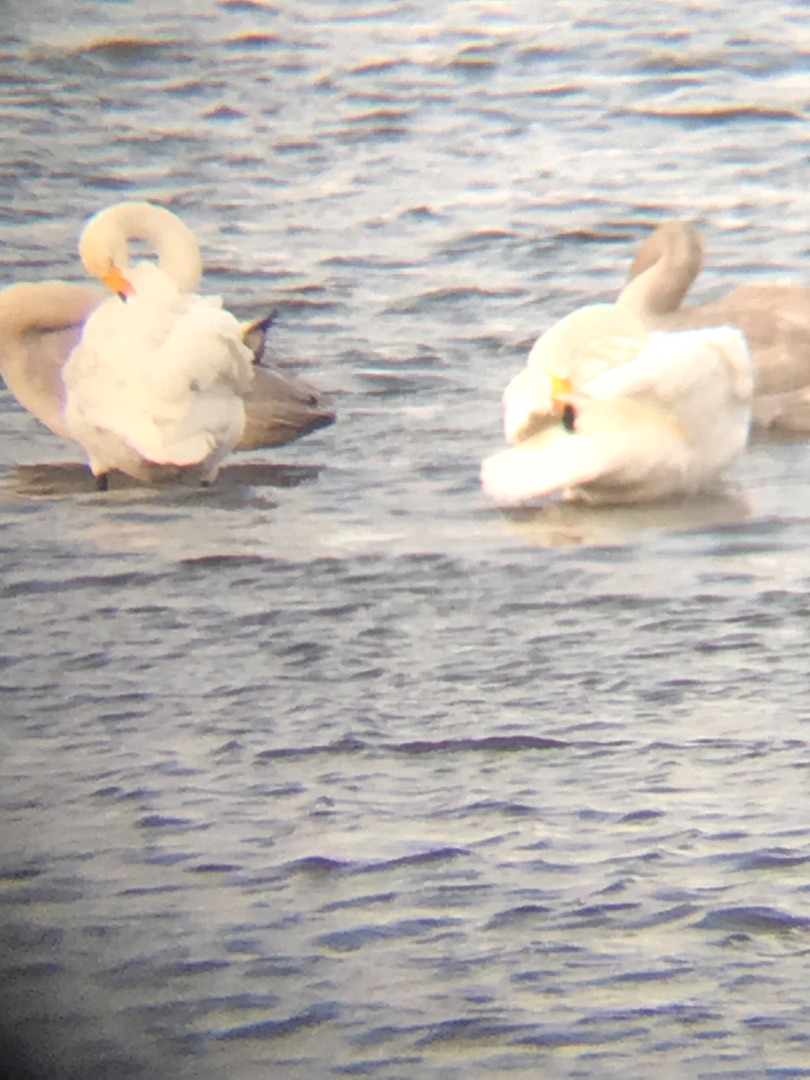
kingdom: Animalia
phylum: Chordata
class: Aves
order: Anseriformes
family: Anatidae
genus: Cygnus
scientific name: Cygnus cygnus
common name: Sangsvane
